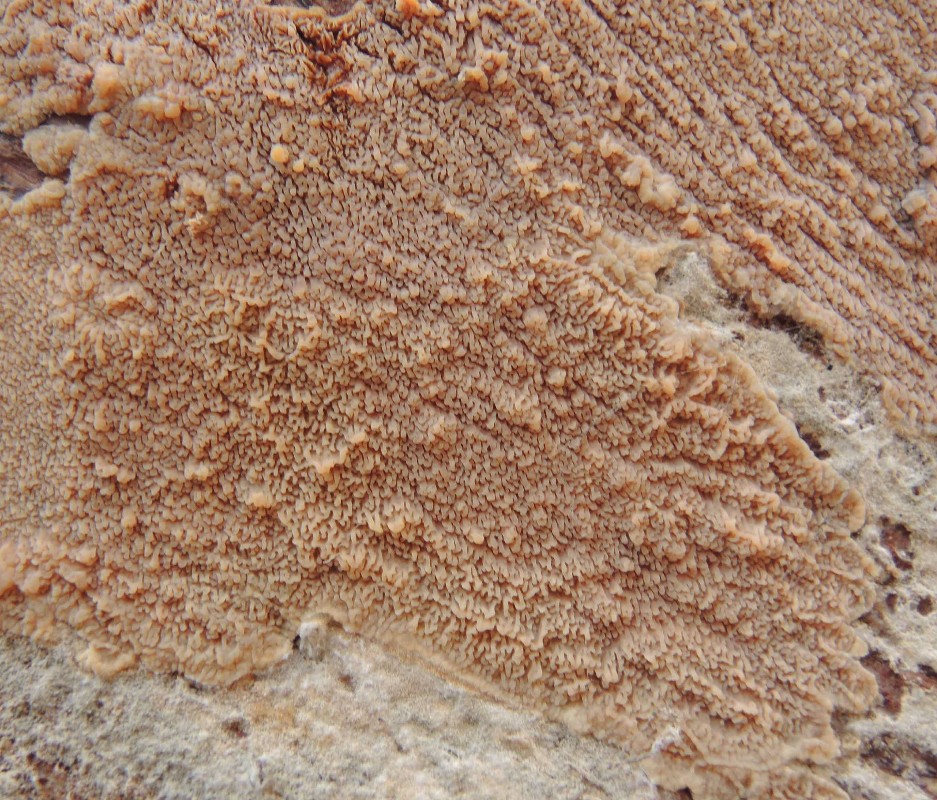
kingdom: Fungi
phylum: Basidiomycota
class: Agaricomycetes
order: Polyporales
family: Meruliaceae
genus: Phlebia
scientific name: Phlebia rufa
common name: ege-åresvamp
